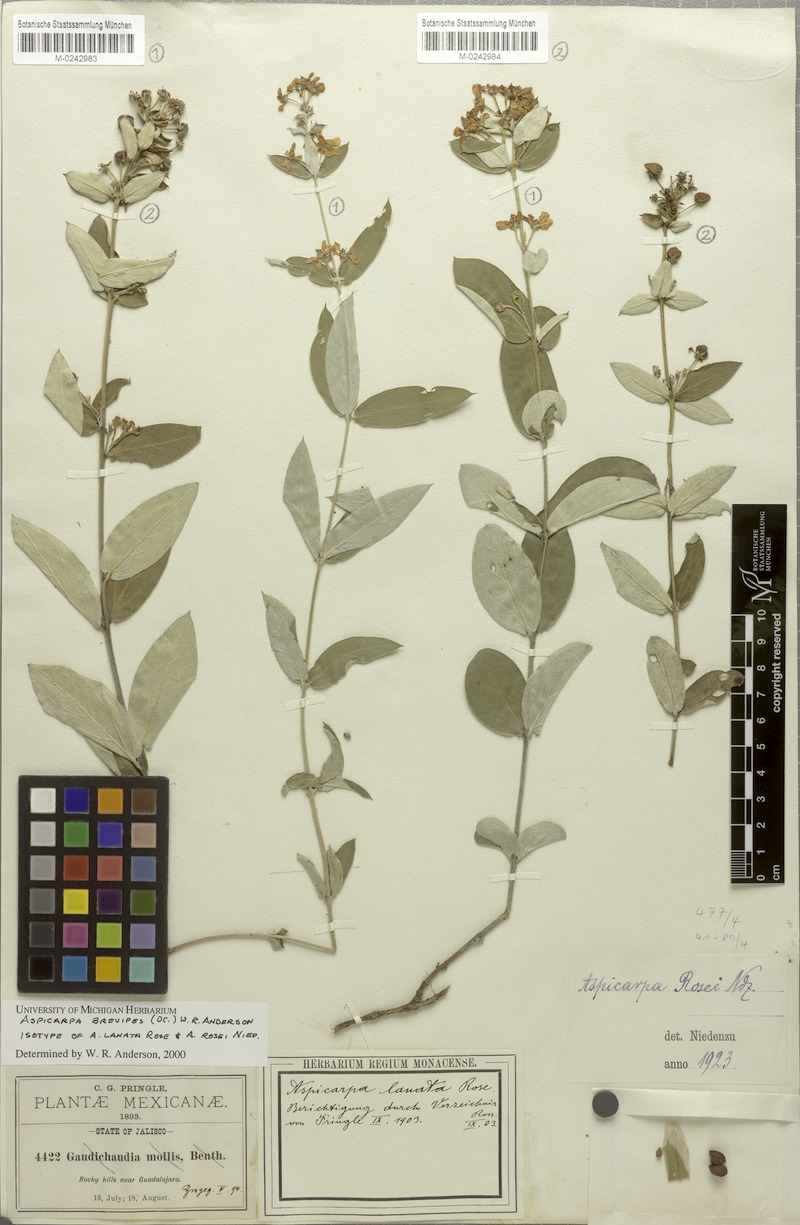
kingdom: Plantae
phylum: Tracheophyta
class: Magnoliopsida
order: Malpighiales
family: Malpighiaceae
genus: Aspicarpa
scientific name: Aspicarpa brevipes
